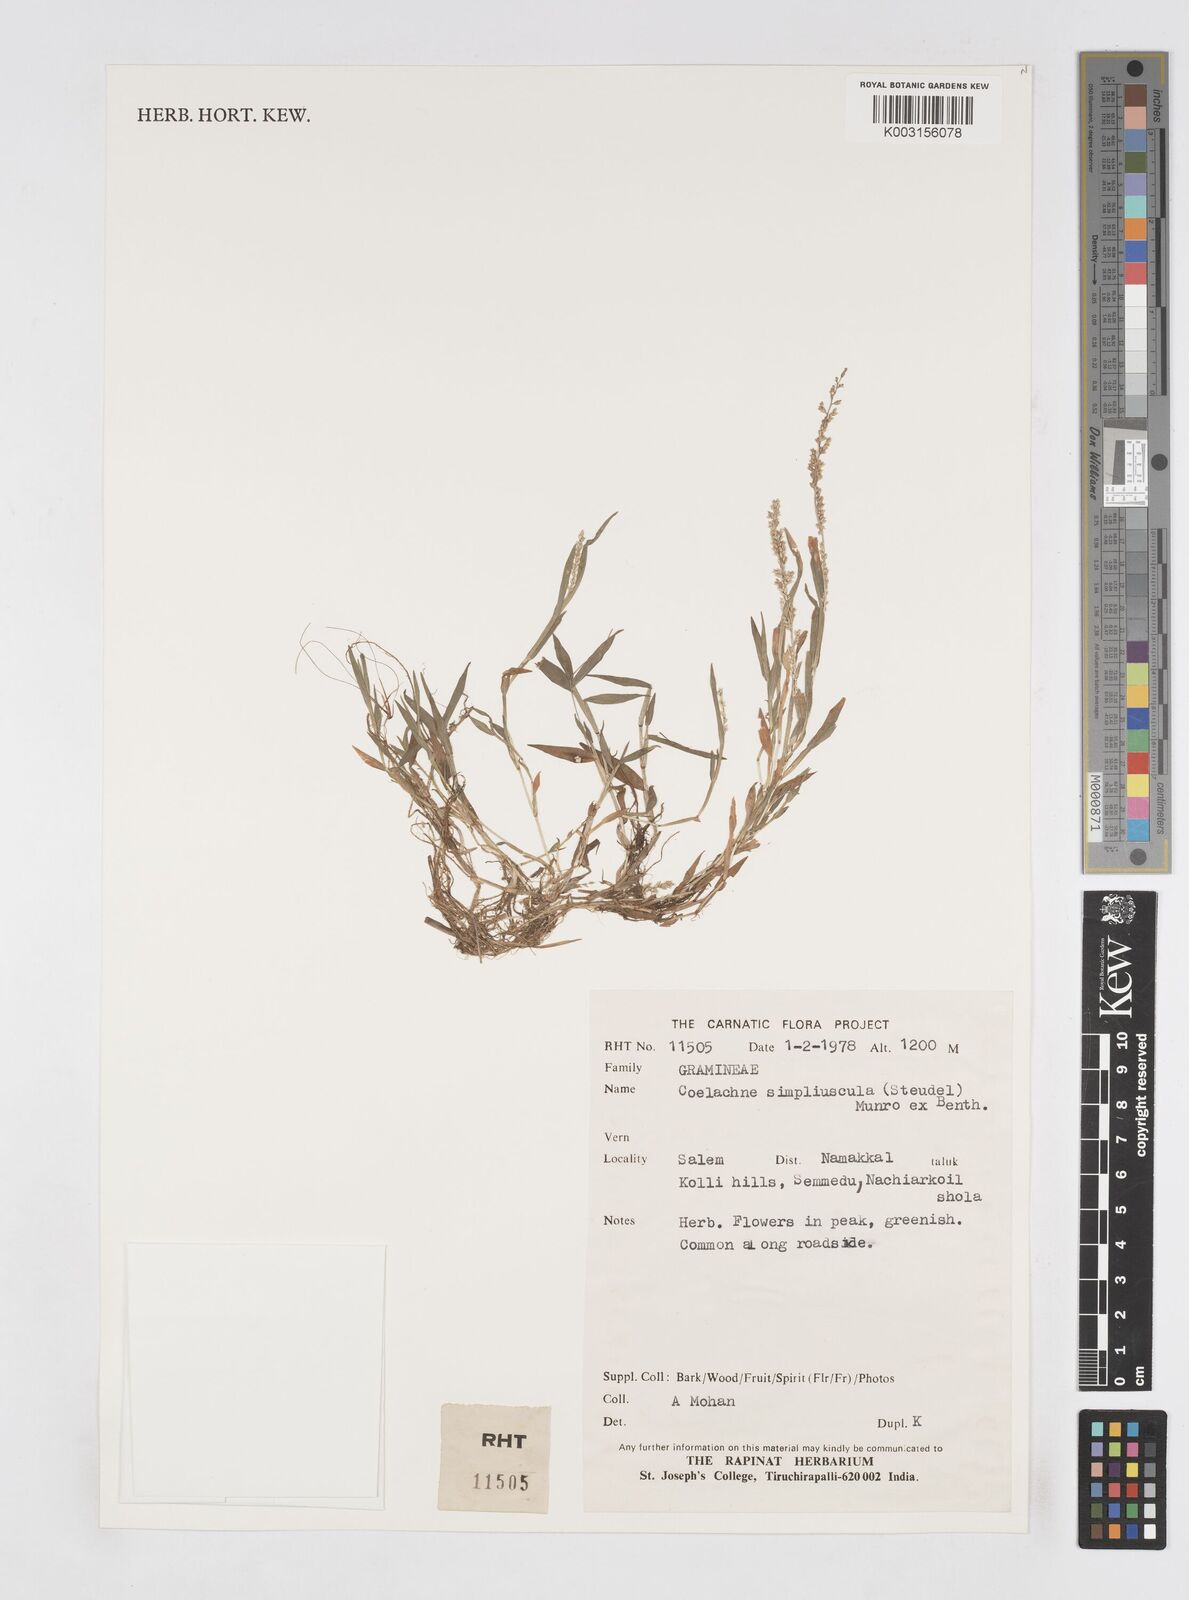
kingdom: Plantae
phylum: Tracheophyta
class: Liliopsida
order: Poales
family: Poaceae
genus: Coelachne
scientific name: Coelachne simpliciuscula
